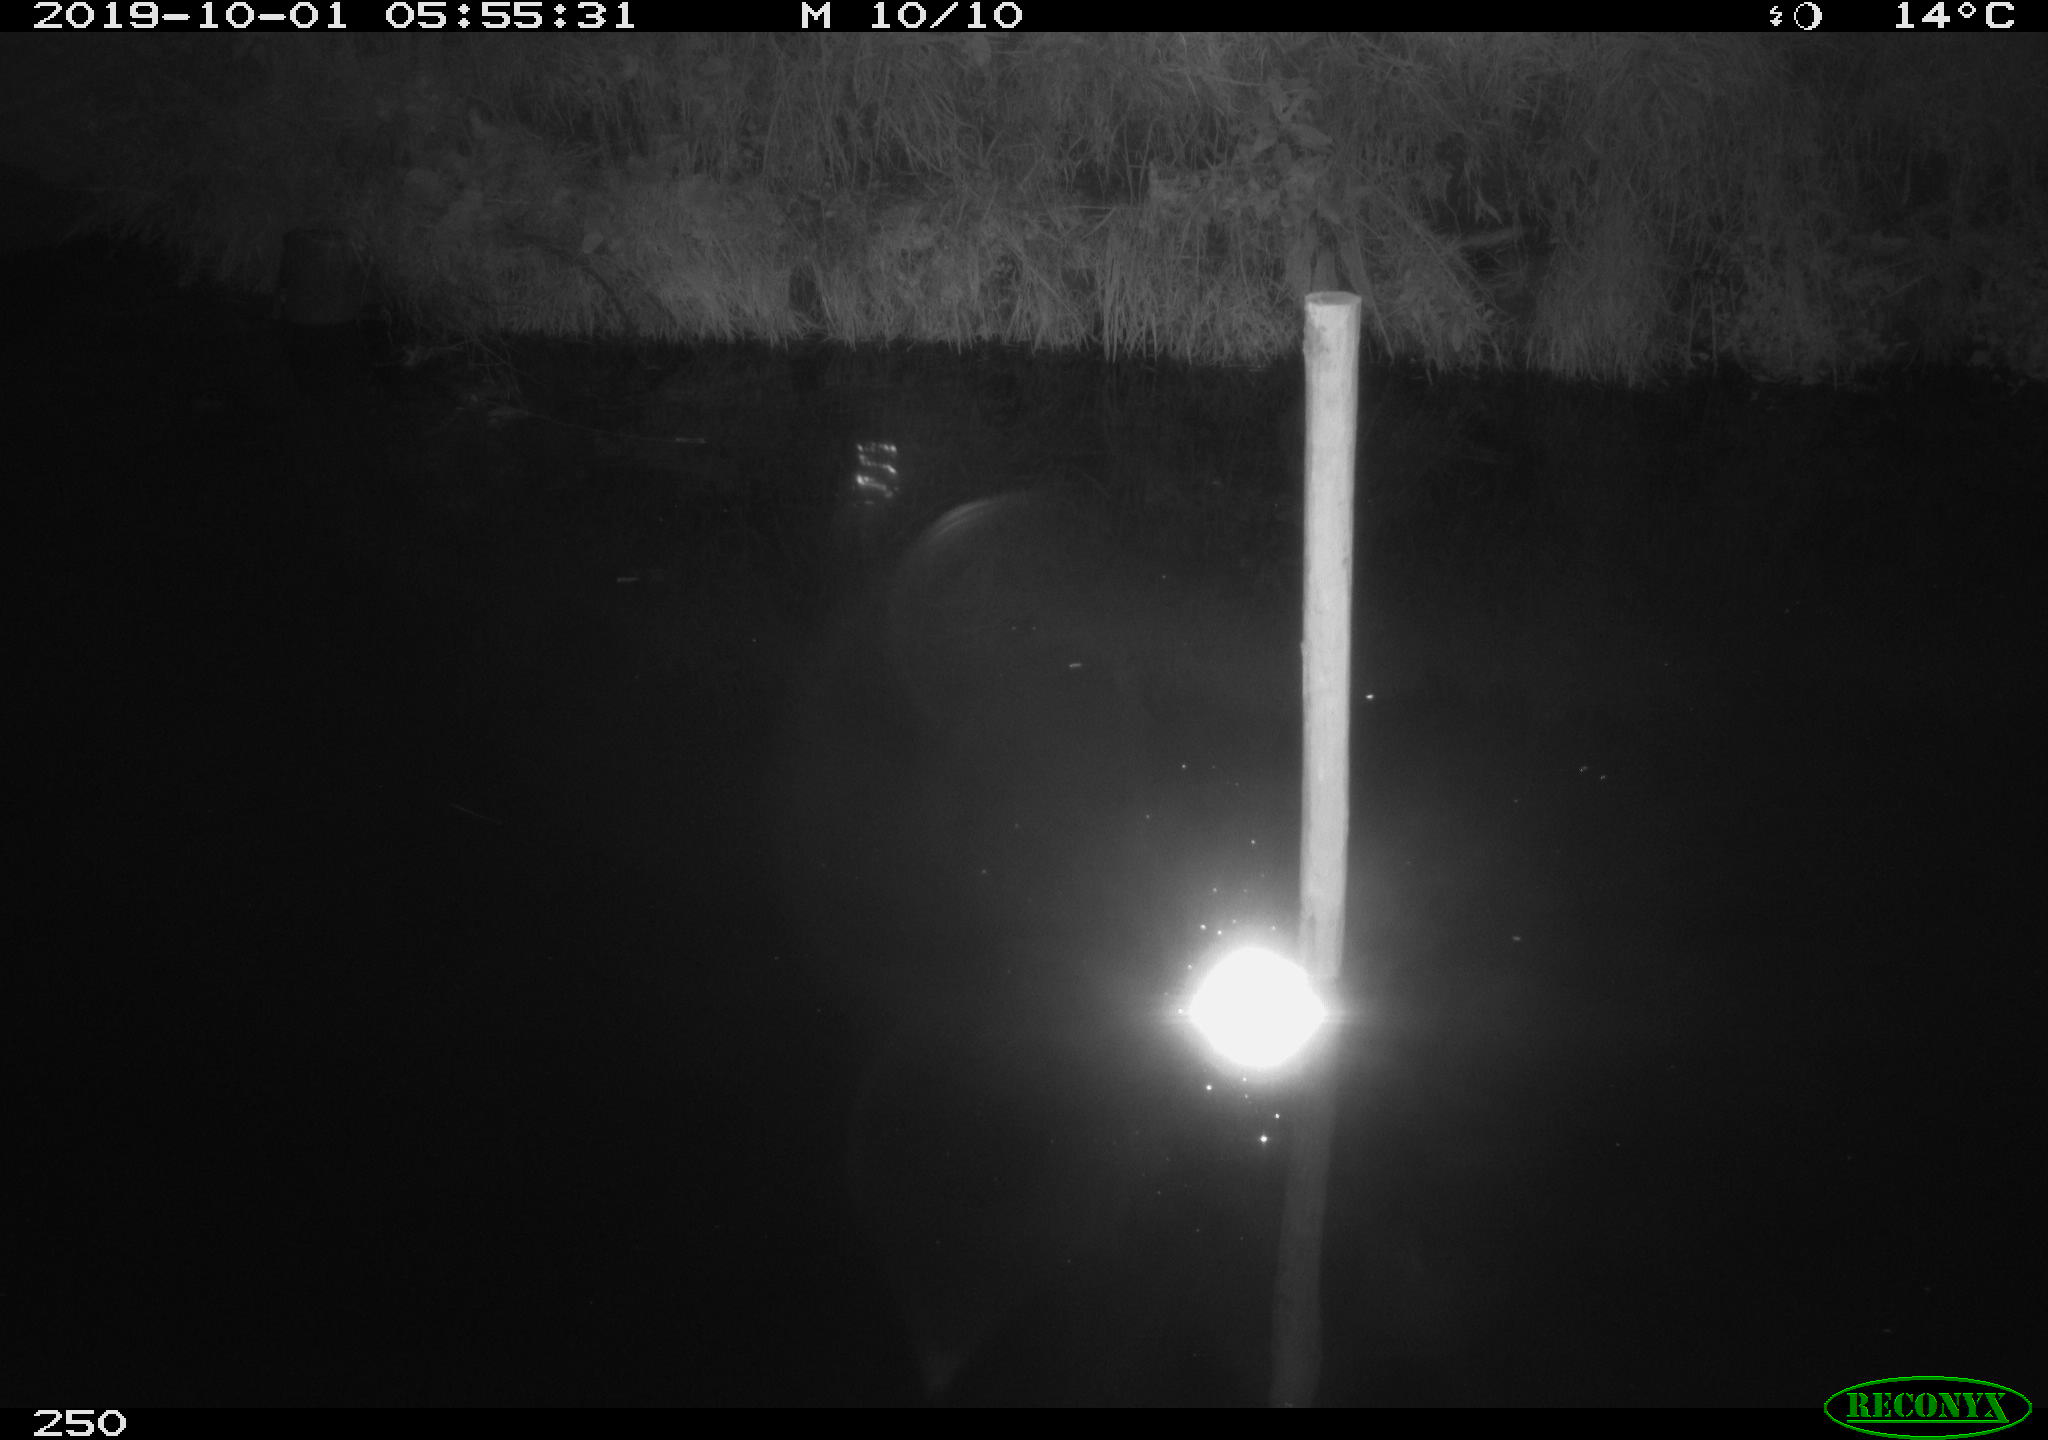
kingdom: Animalia
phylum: Chordata
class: Aves
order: Anseriformes
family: Anatidae
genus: Anas
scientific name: Anas platyrhynchos
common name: Mallard
